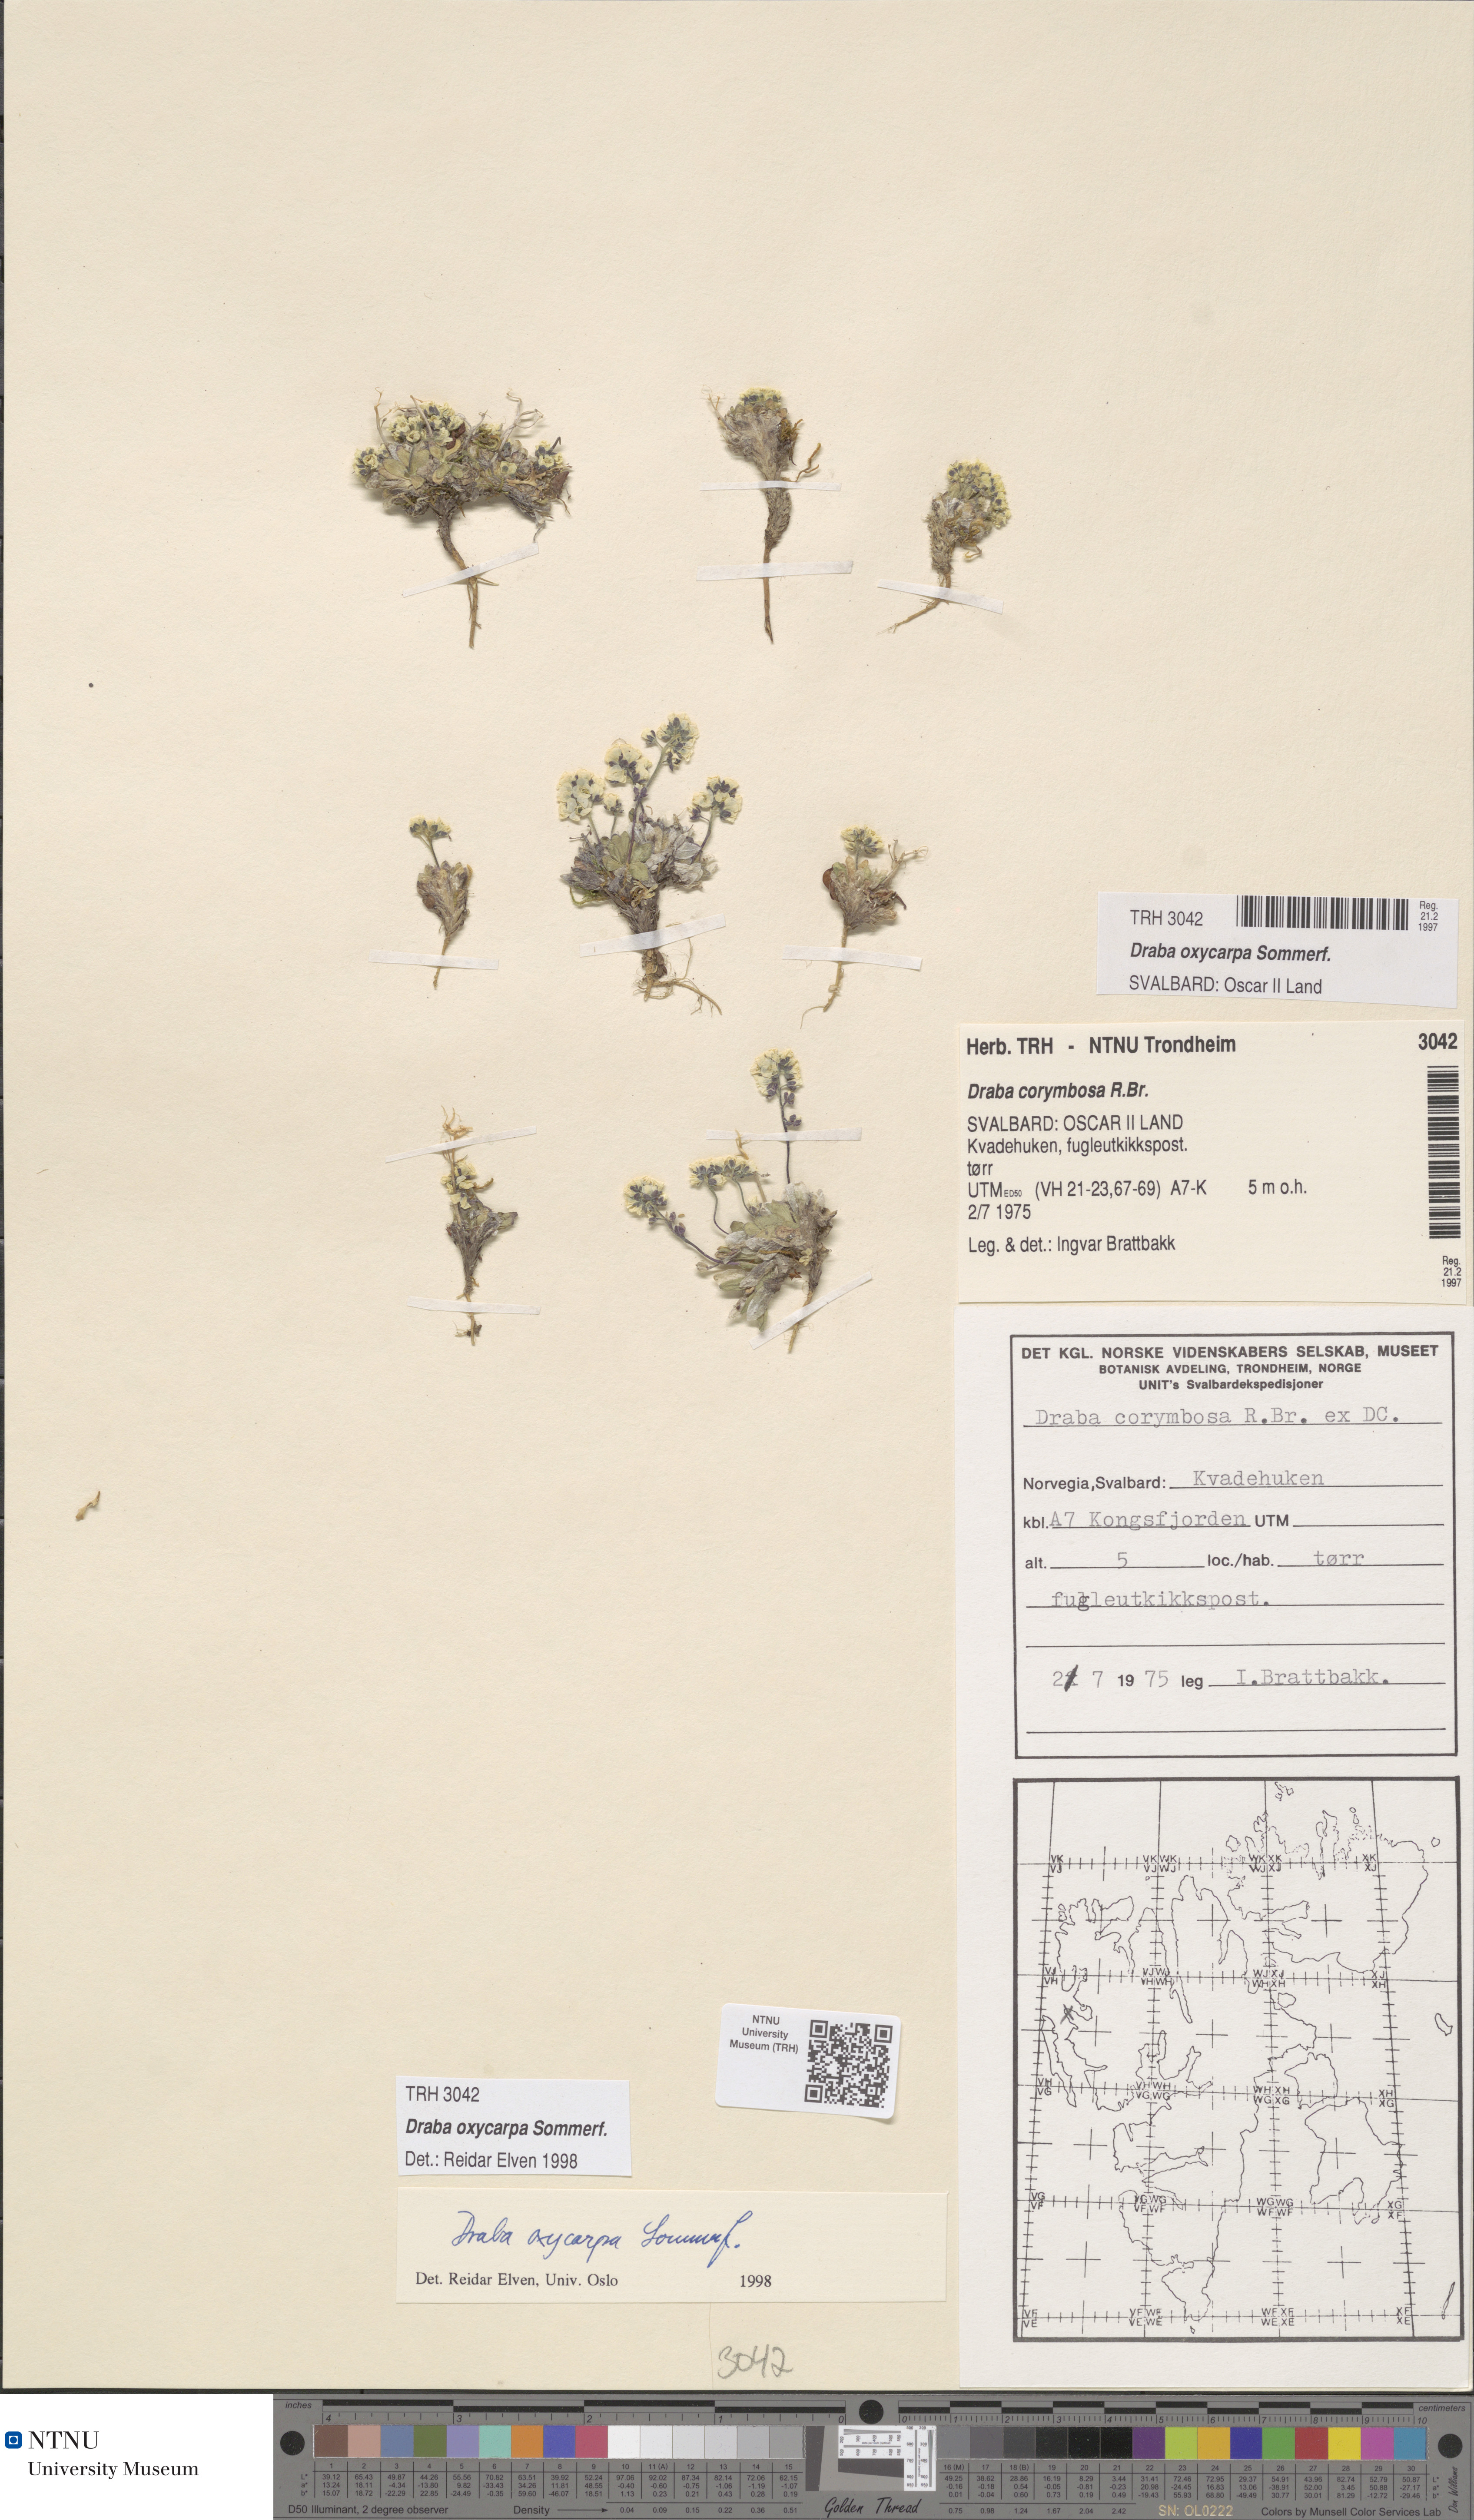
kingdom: Plantae
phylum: Tracheophyta
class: Magnoliopsida
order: Brassicales
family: Brassicaceae
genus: Draba
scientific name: Draba oxycarpa
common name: Sharp-fruited whitlow-grass
